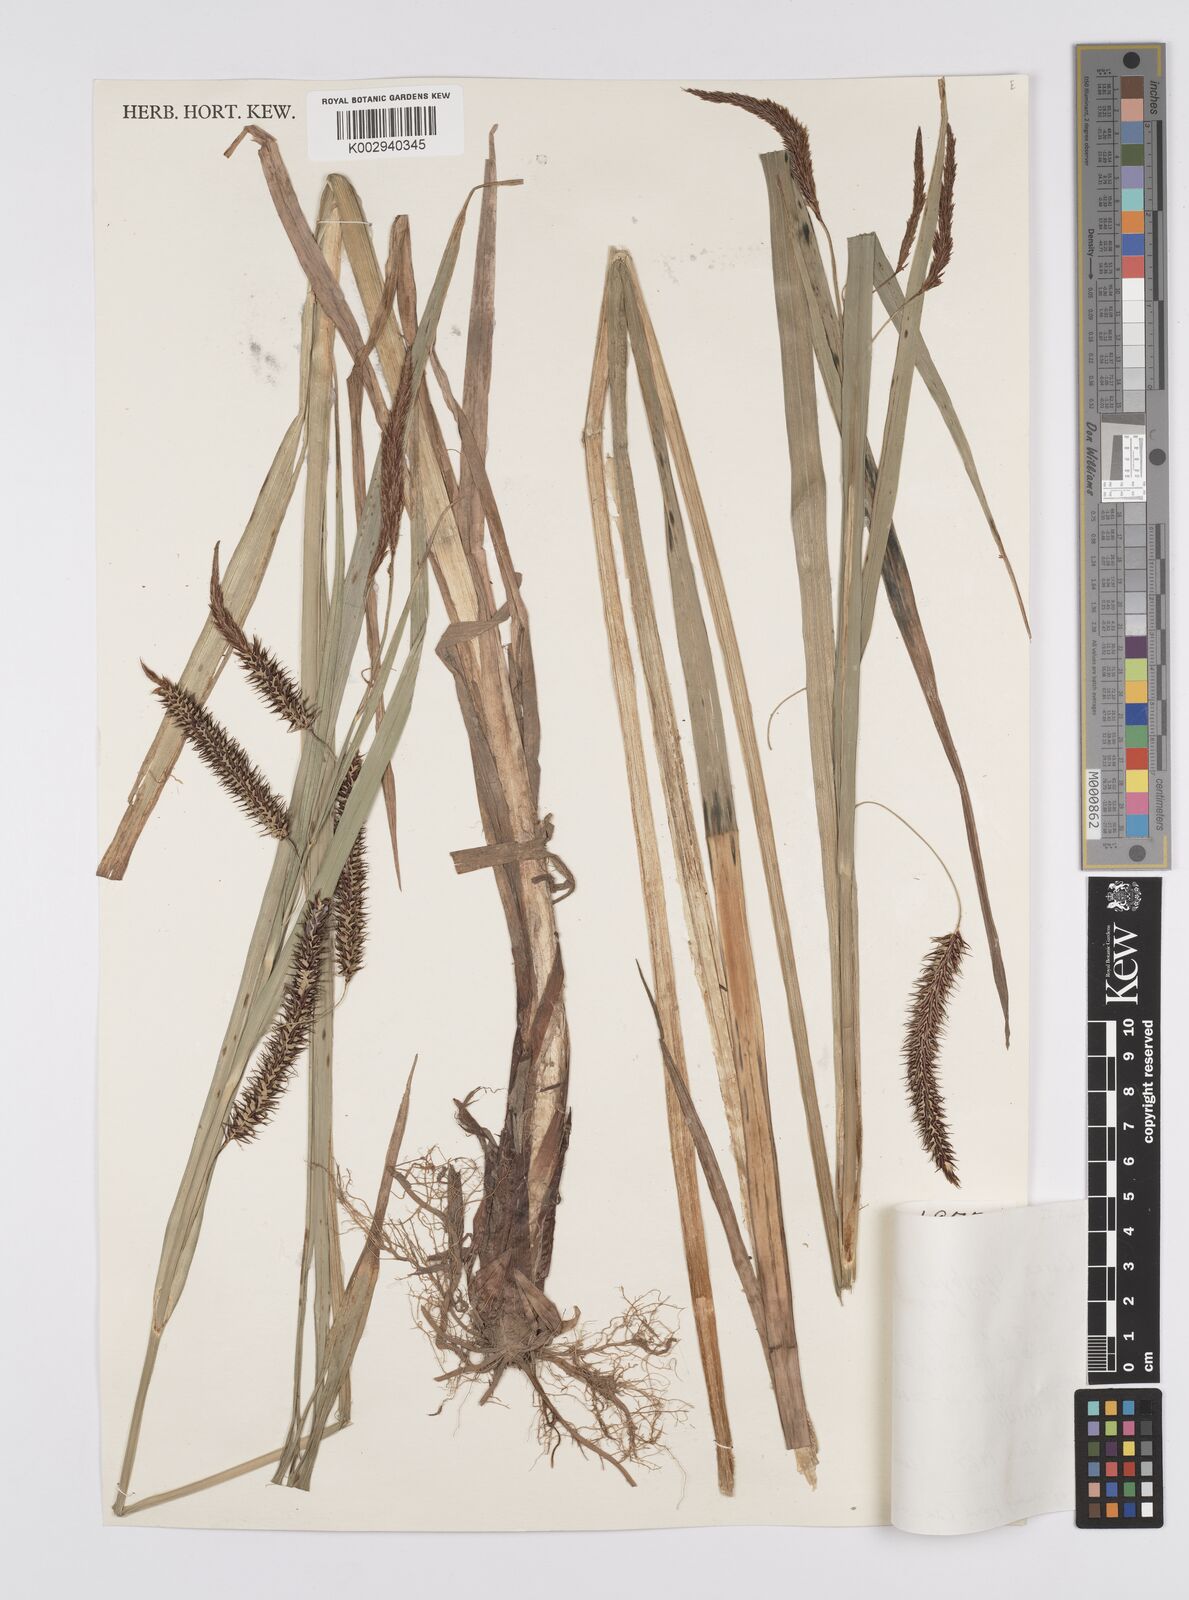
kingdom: Plantae
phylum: Tracheophyta
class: Liliopsida
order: Poales
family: Cyperaceae
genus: Carex
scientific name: Carex lyngbyei
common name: Lyngbye's sedge
